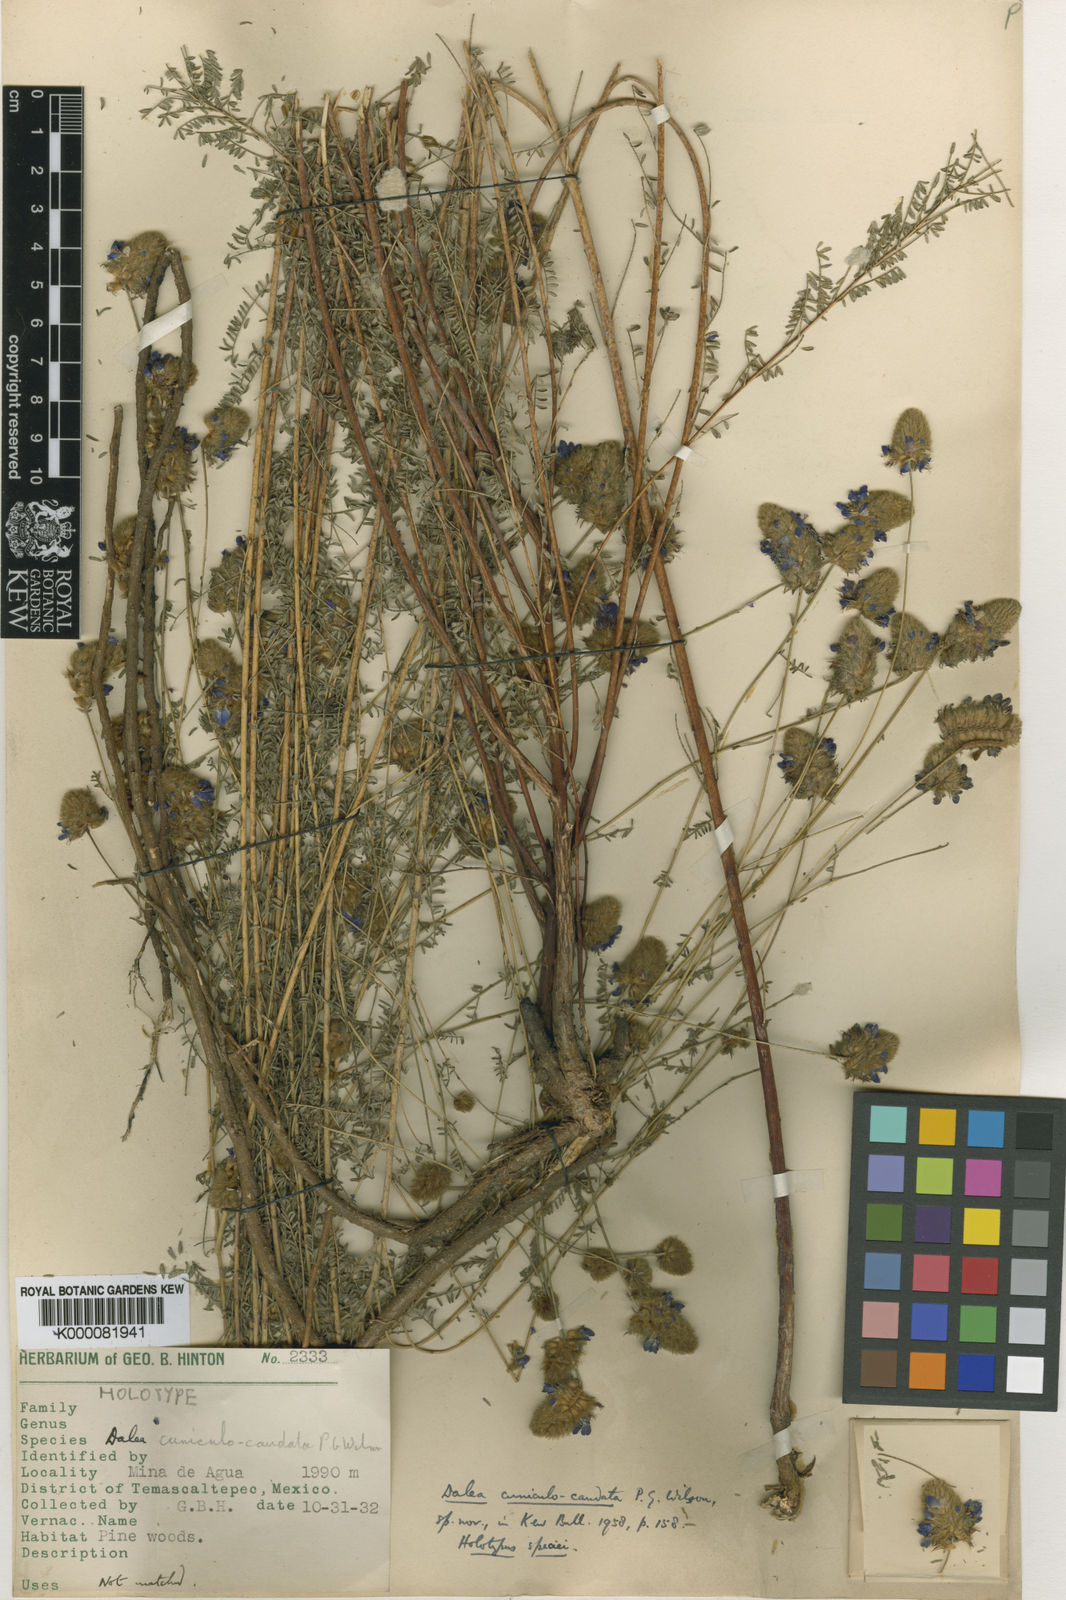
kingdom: Plantae
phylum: Tracheophyta
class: Magnoliopsida
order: Fabales
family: Fabaceae
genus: Dalea
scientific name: Dalea cuniculocaudata
